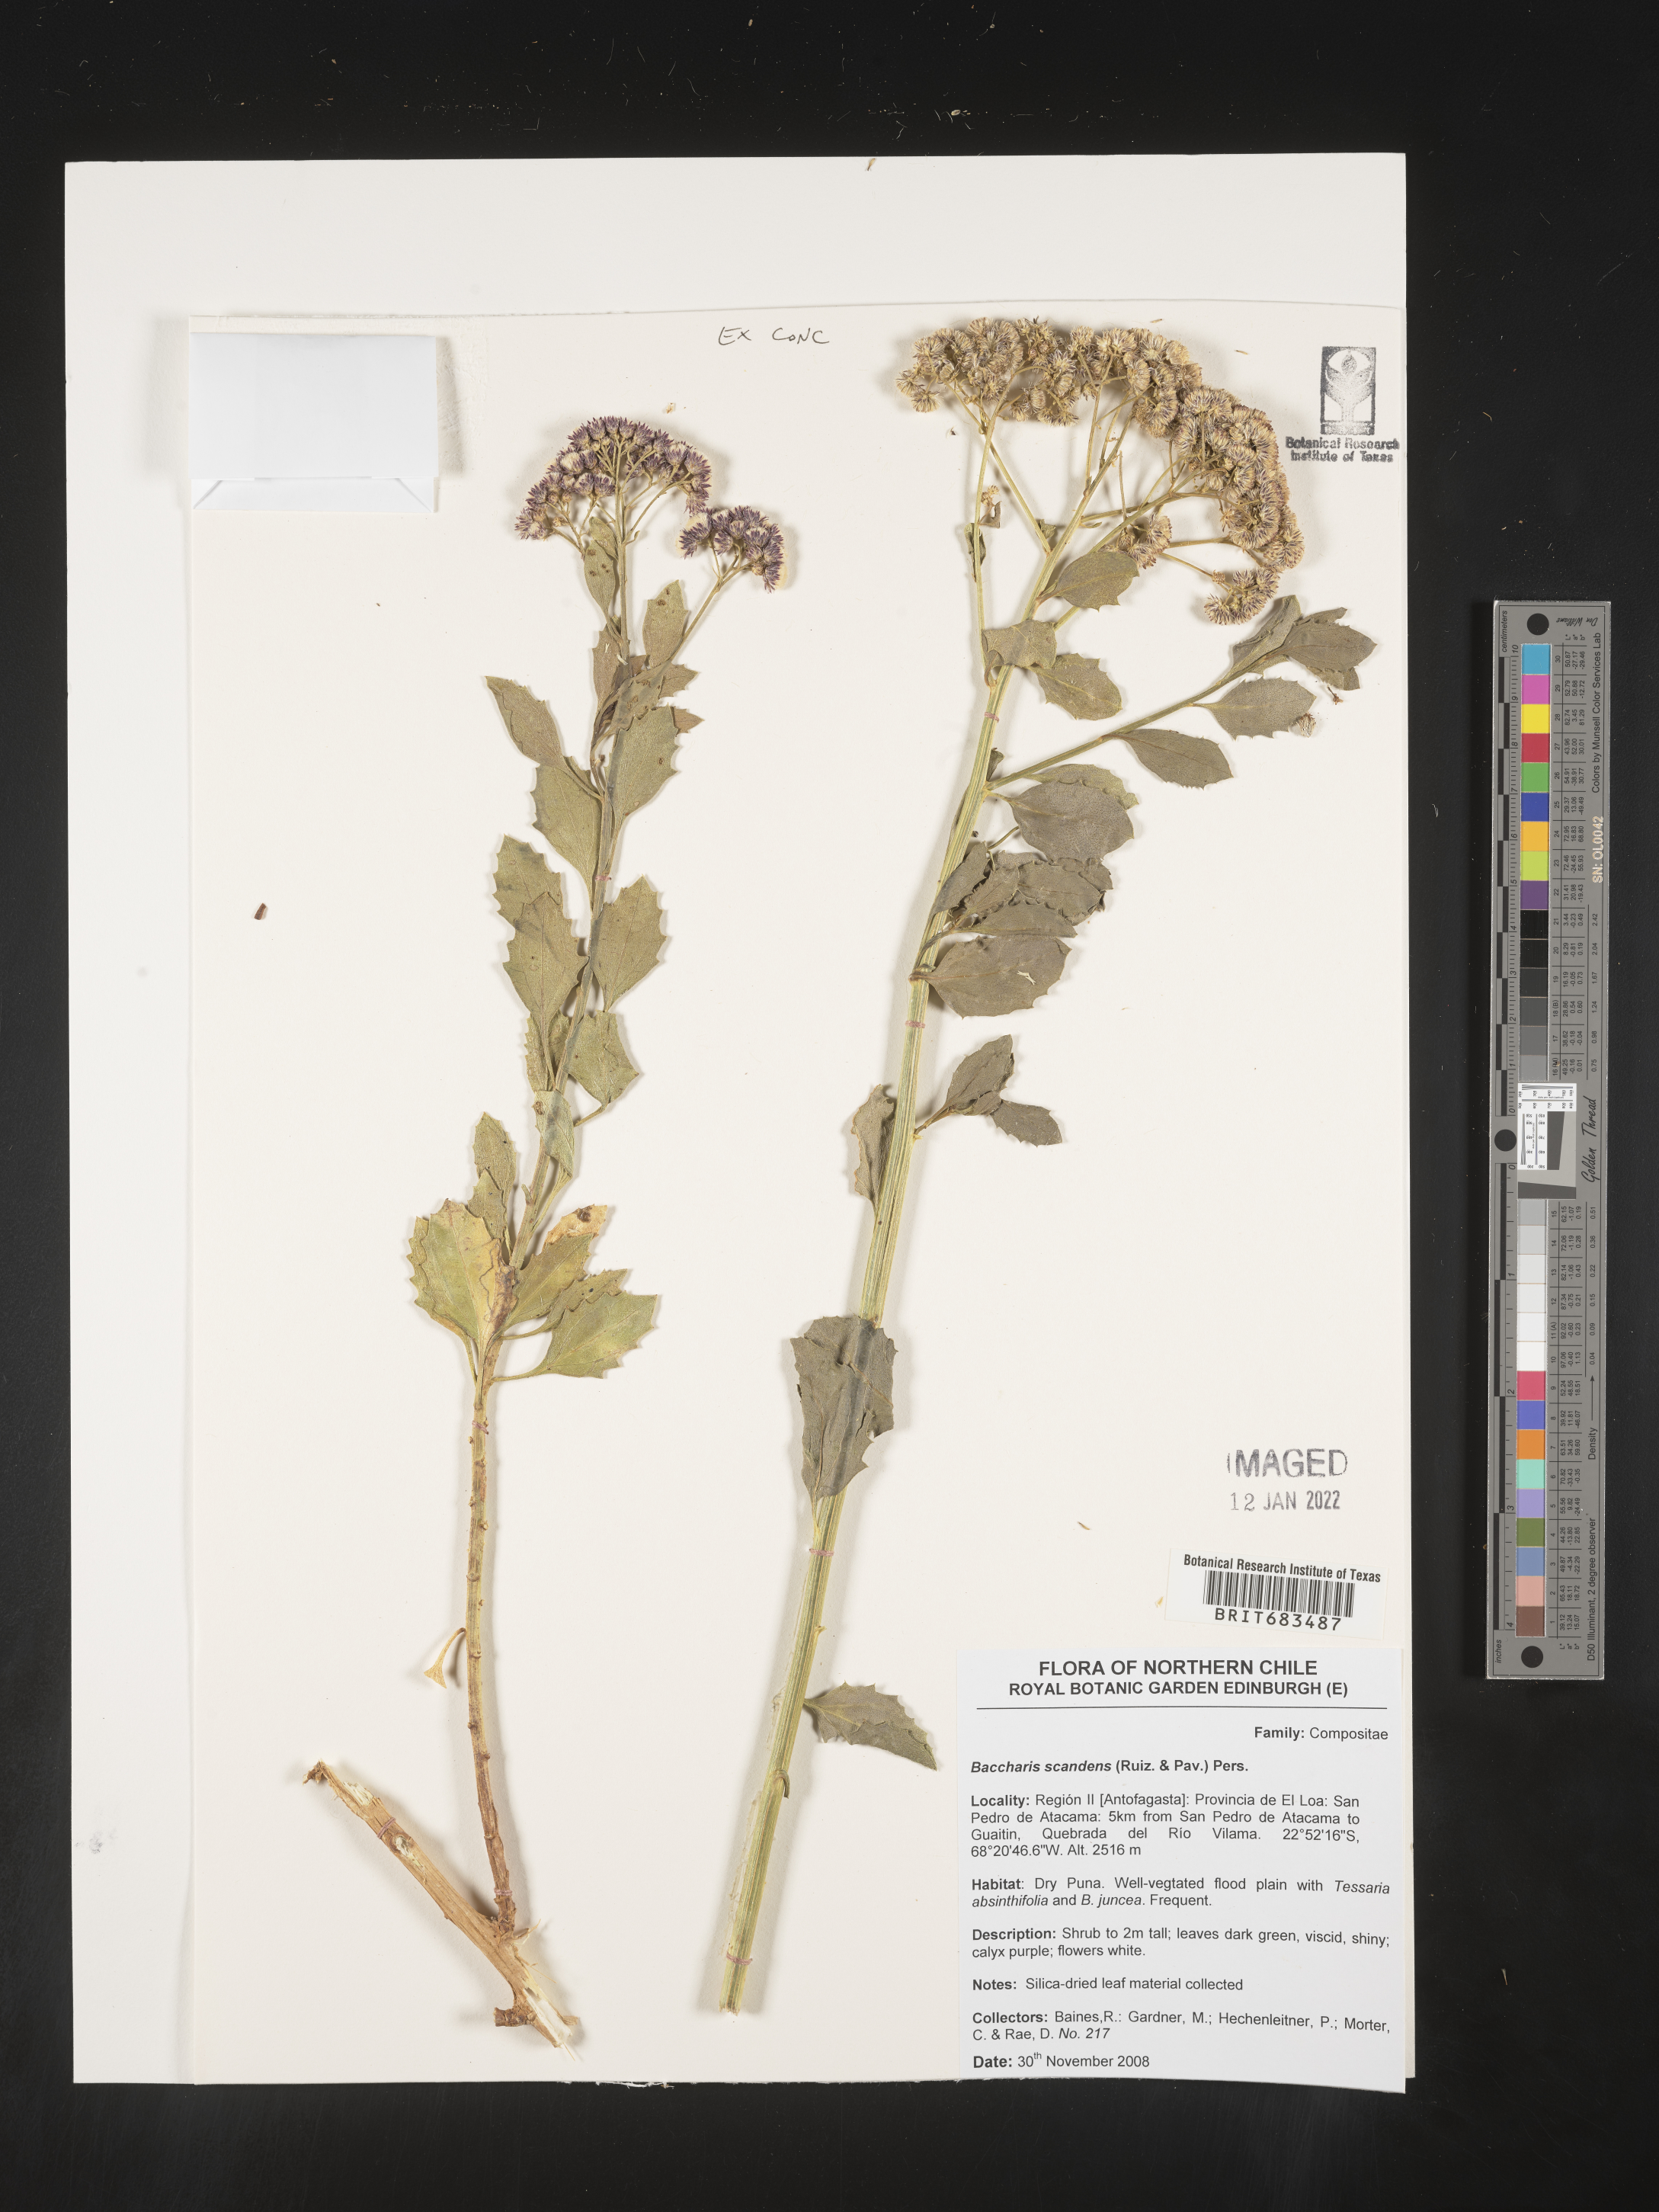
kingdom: Plantae
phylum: Tracheophyta
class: Magnoliopsida
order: Asterales
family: Asteraceae
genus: Baccharis
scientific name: Baccharis
